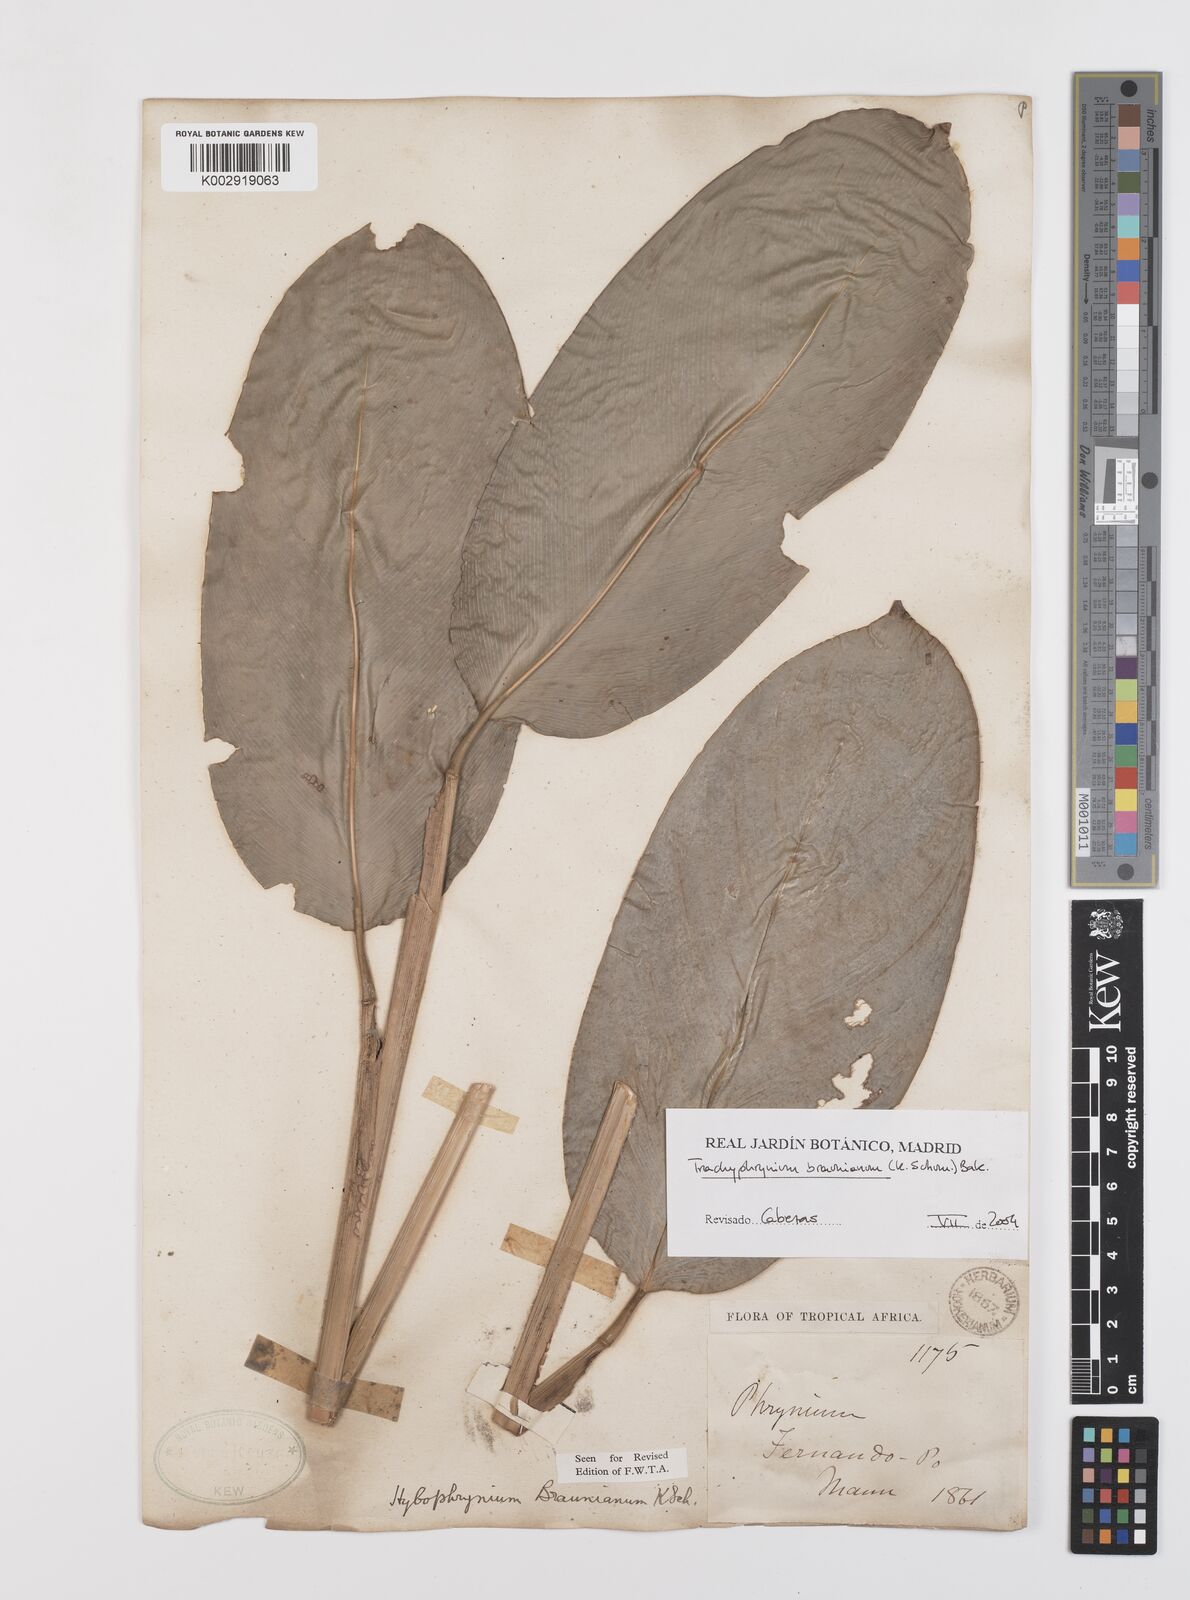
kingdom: Plantae
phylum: Tracheophyta
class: Liliopsida
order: Zingiberales
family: Marantaceae
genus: Trachyphrynium
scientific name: Trachyphrynium braunianum
